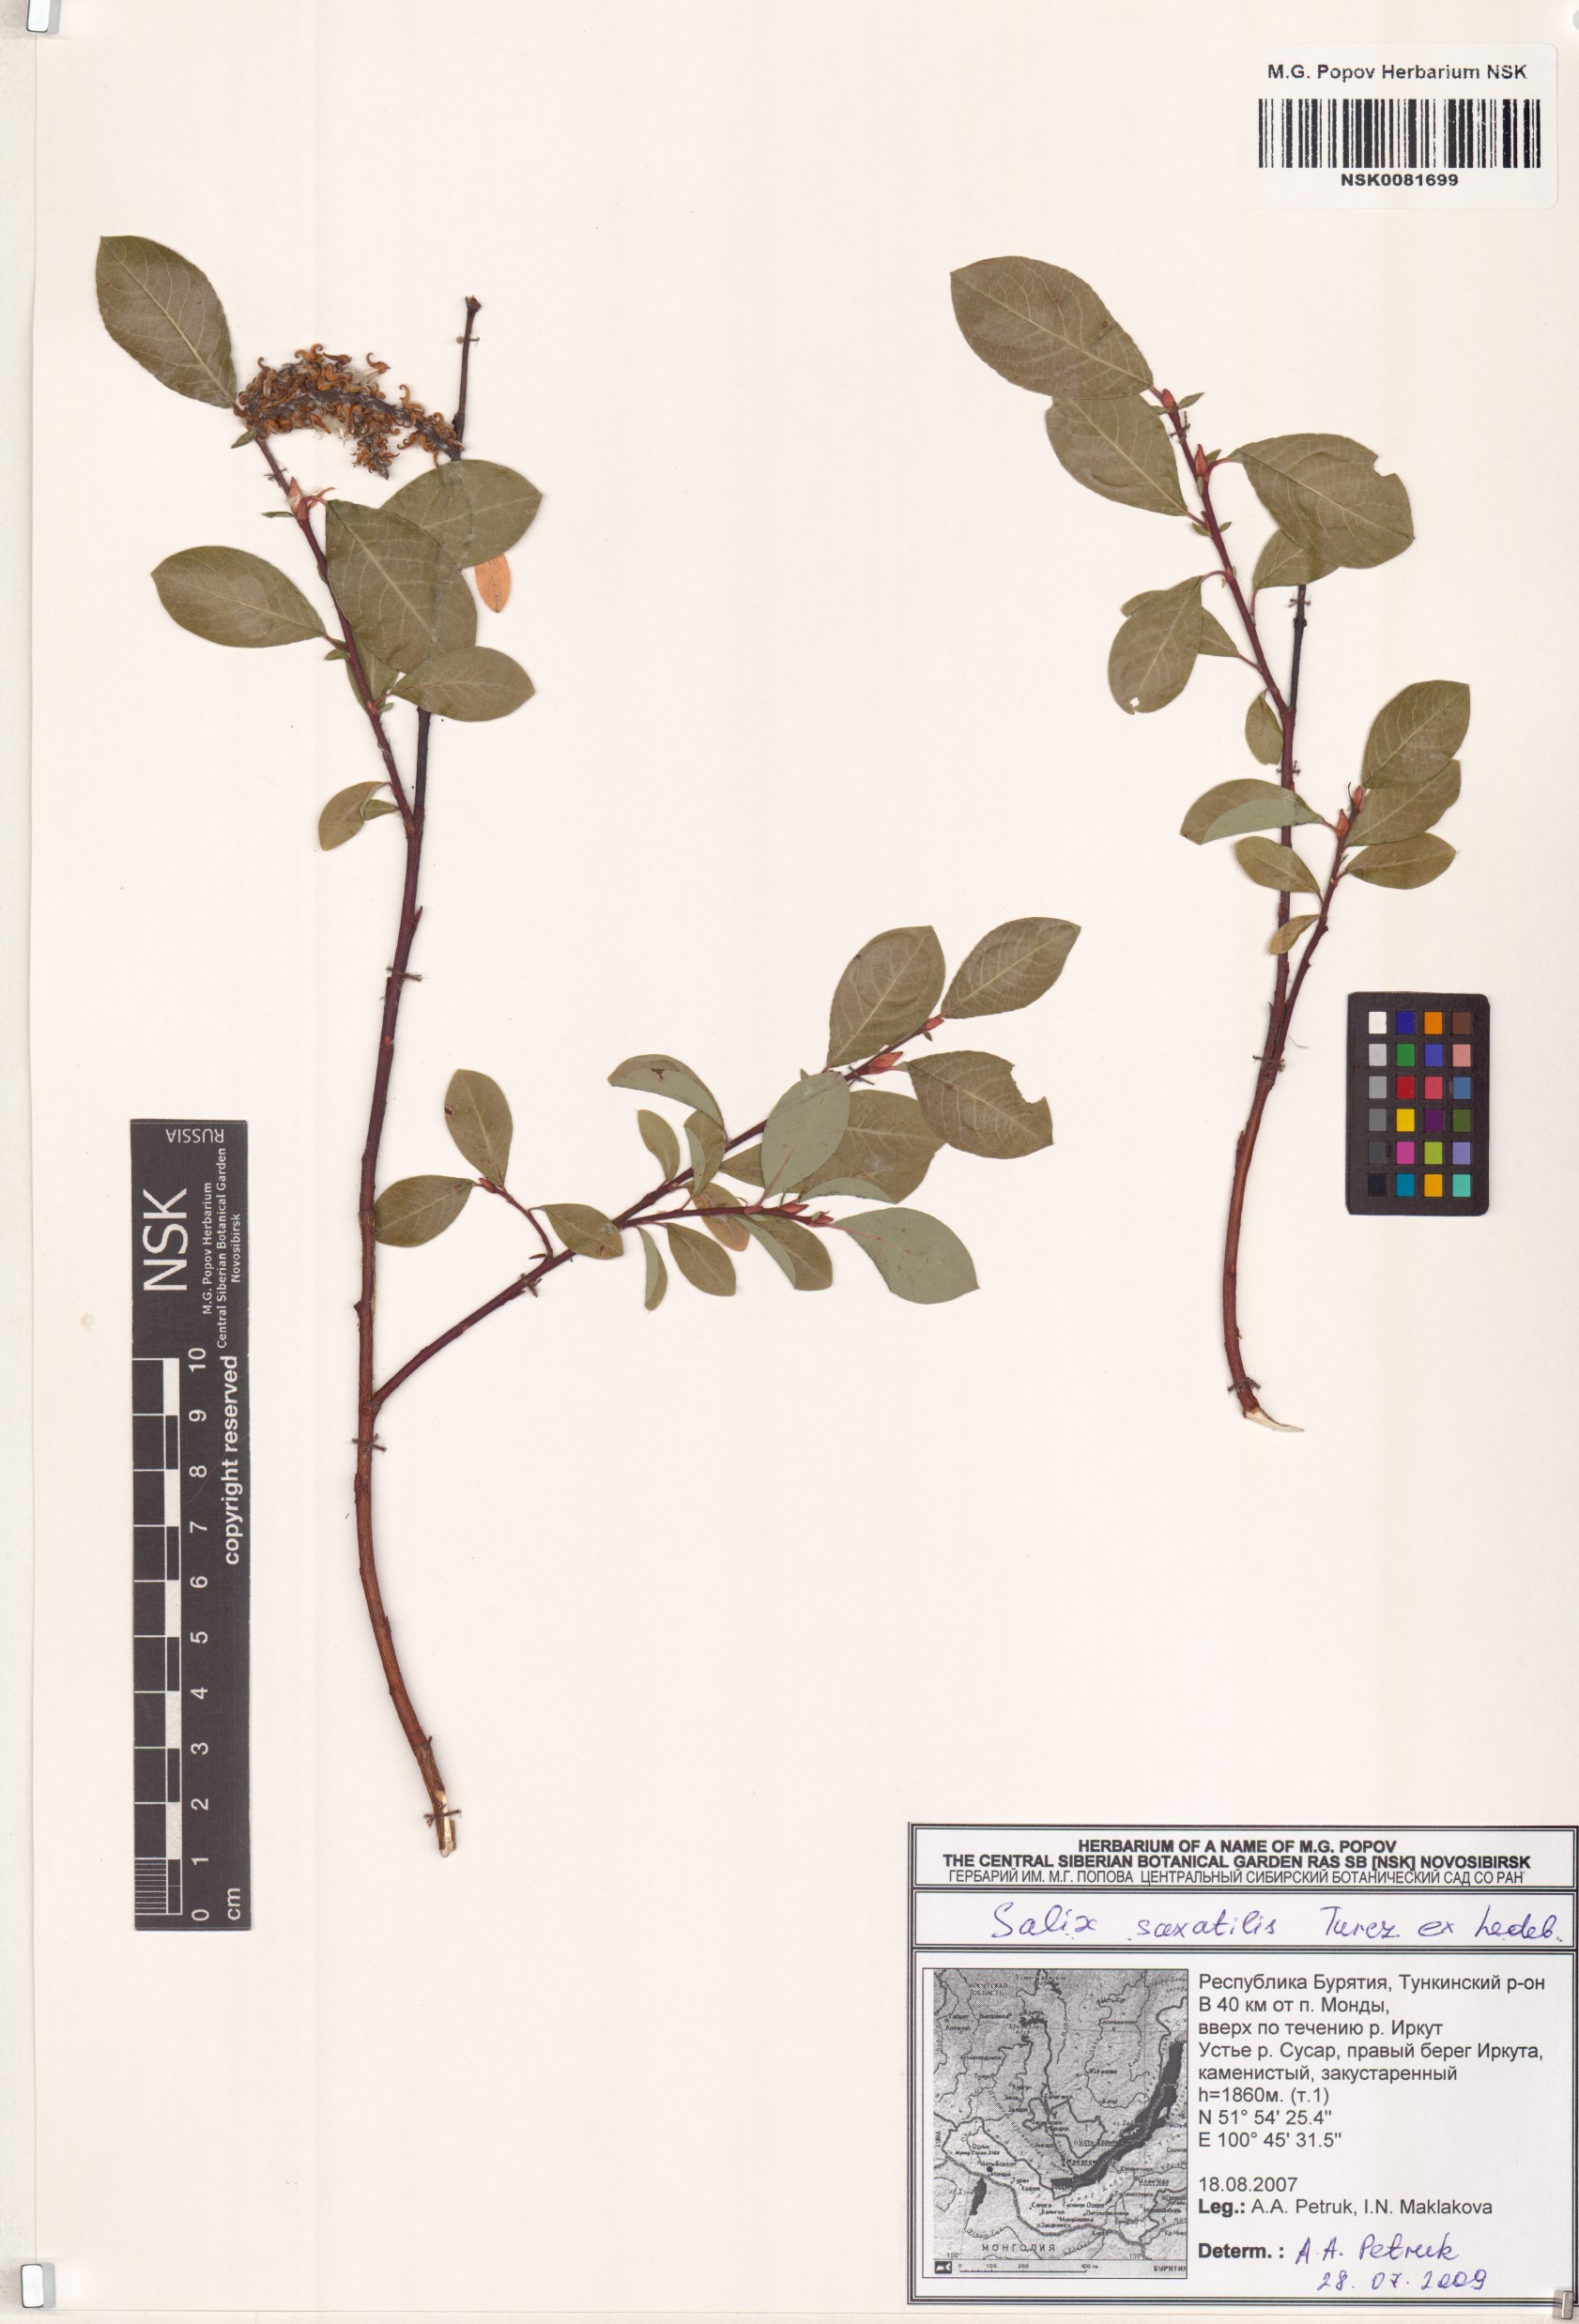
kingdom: Plantae
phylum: Tracheophyta
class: Magnoliopsida
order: Malpighiales
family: Salicaceae
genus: Salix
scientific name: Salix saxatilis
